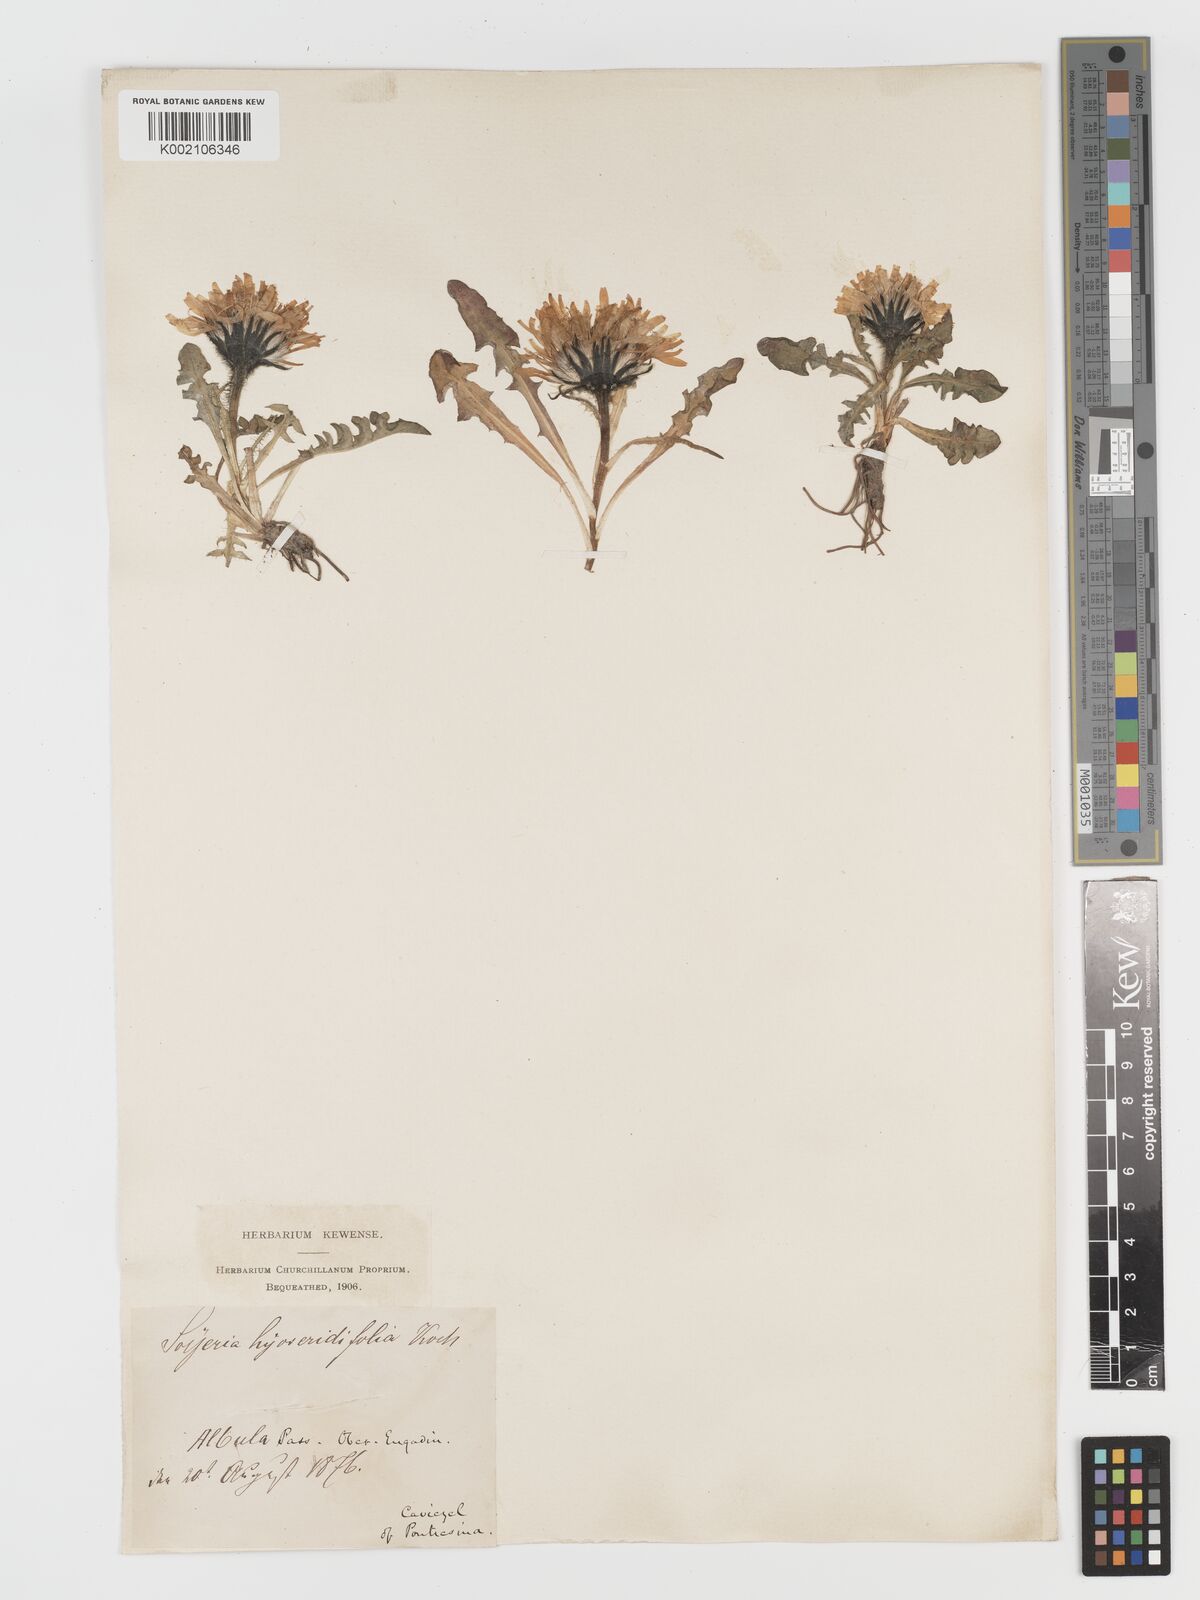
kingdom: Plantae
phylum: Tracheophyta
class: Magnoliopsida
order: Asterales
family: Asteraceae
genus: Crepis
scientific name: Crepis
